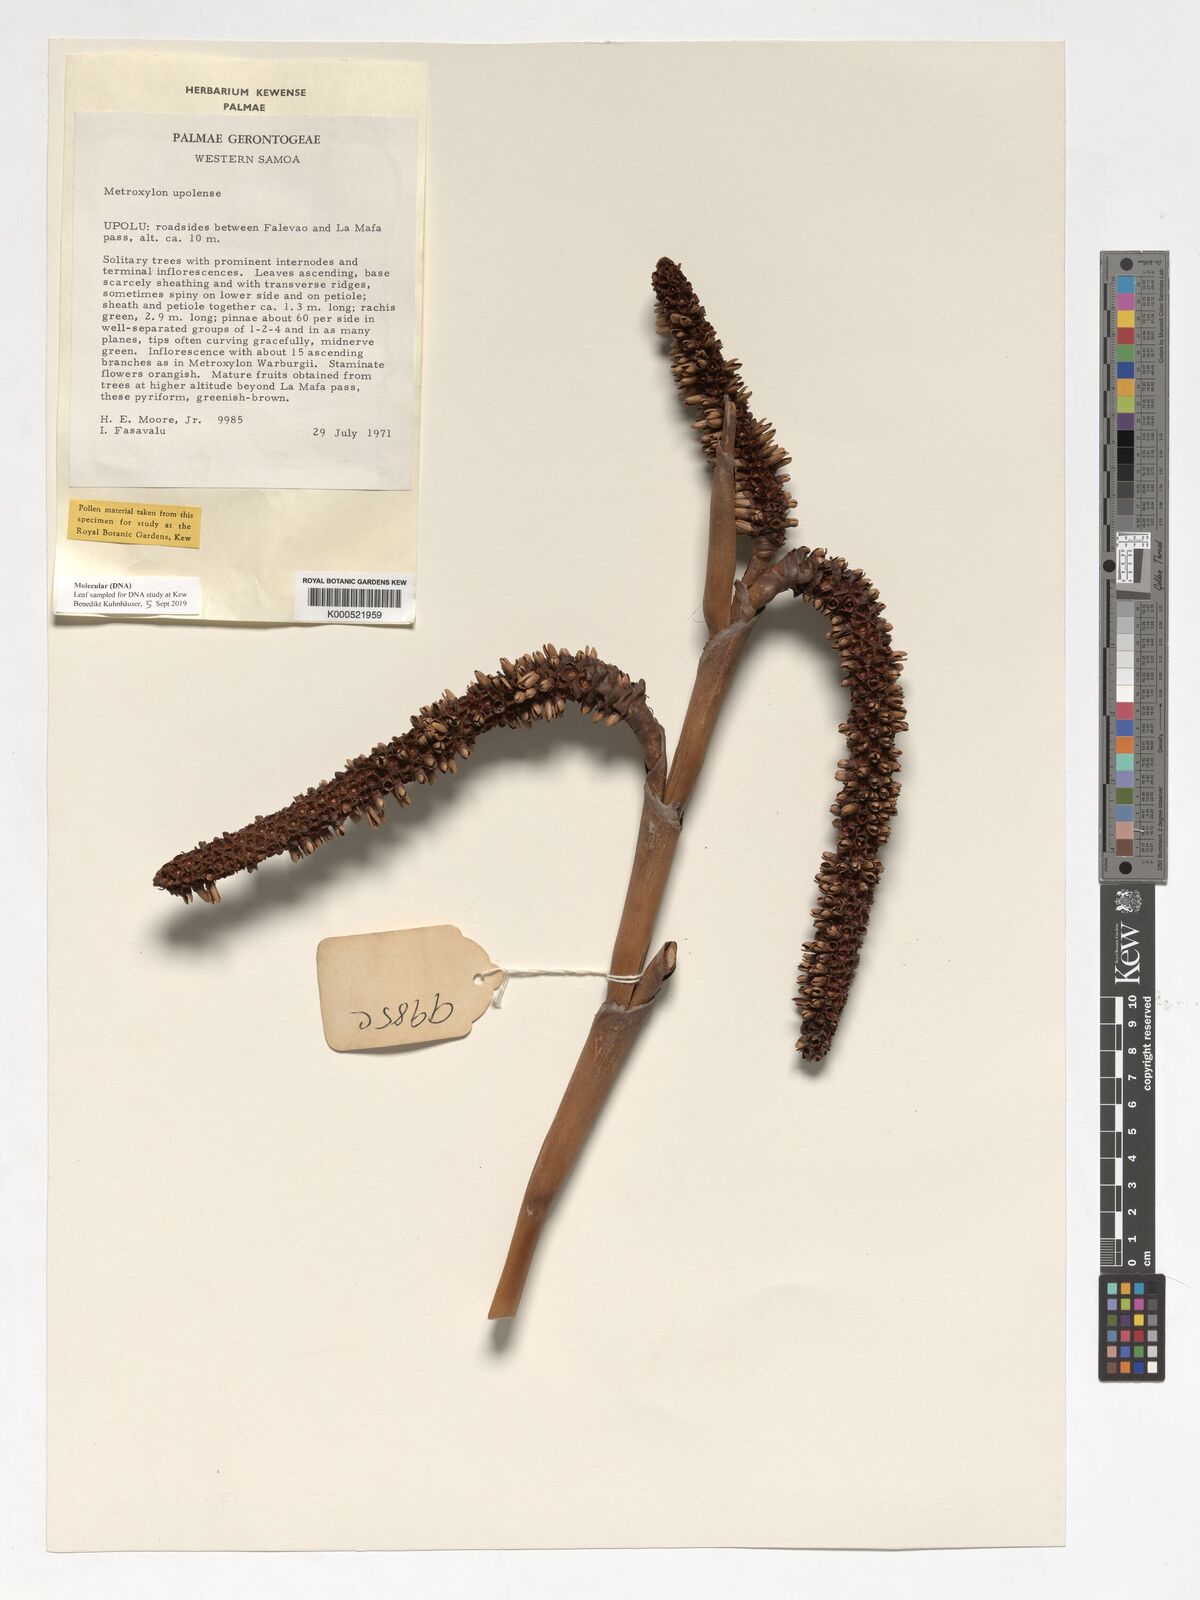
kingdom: Plantae
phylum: Tracheophyta
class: Liliopsida
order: Arecales
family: Arecaceae
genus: Metroxylon
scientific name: Metroxylon upoluense
